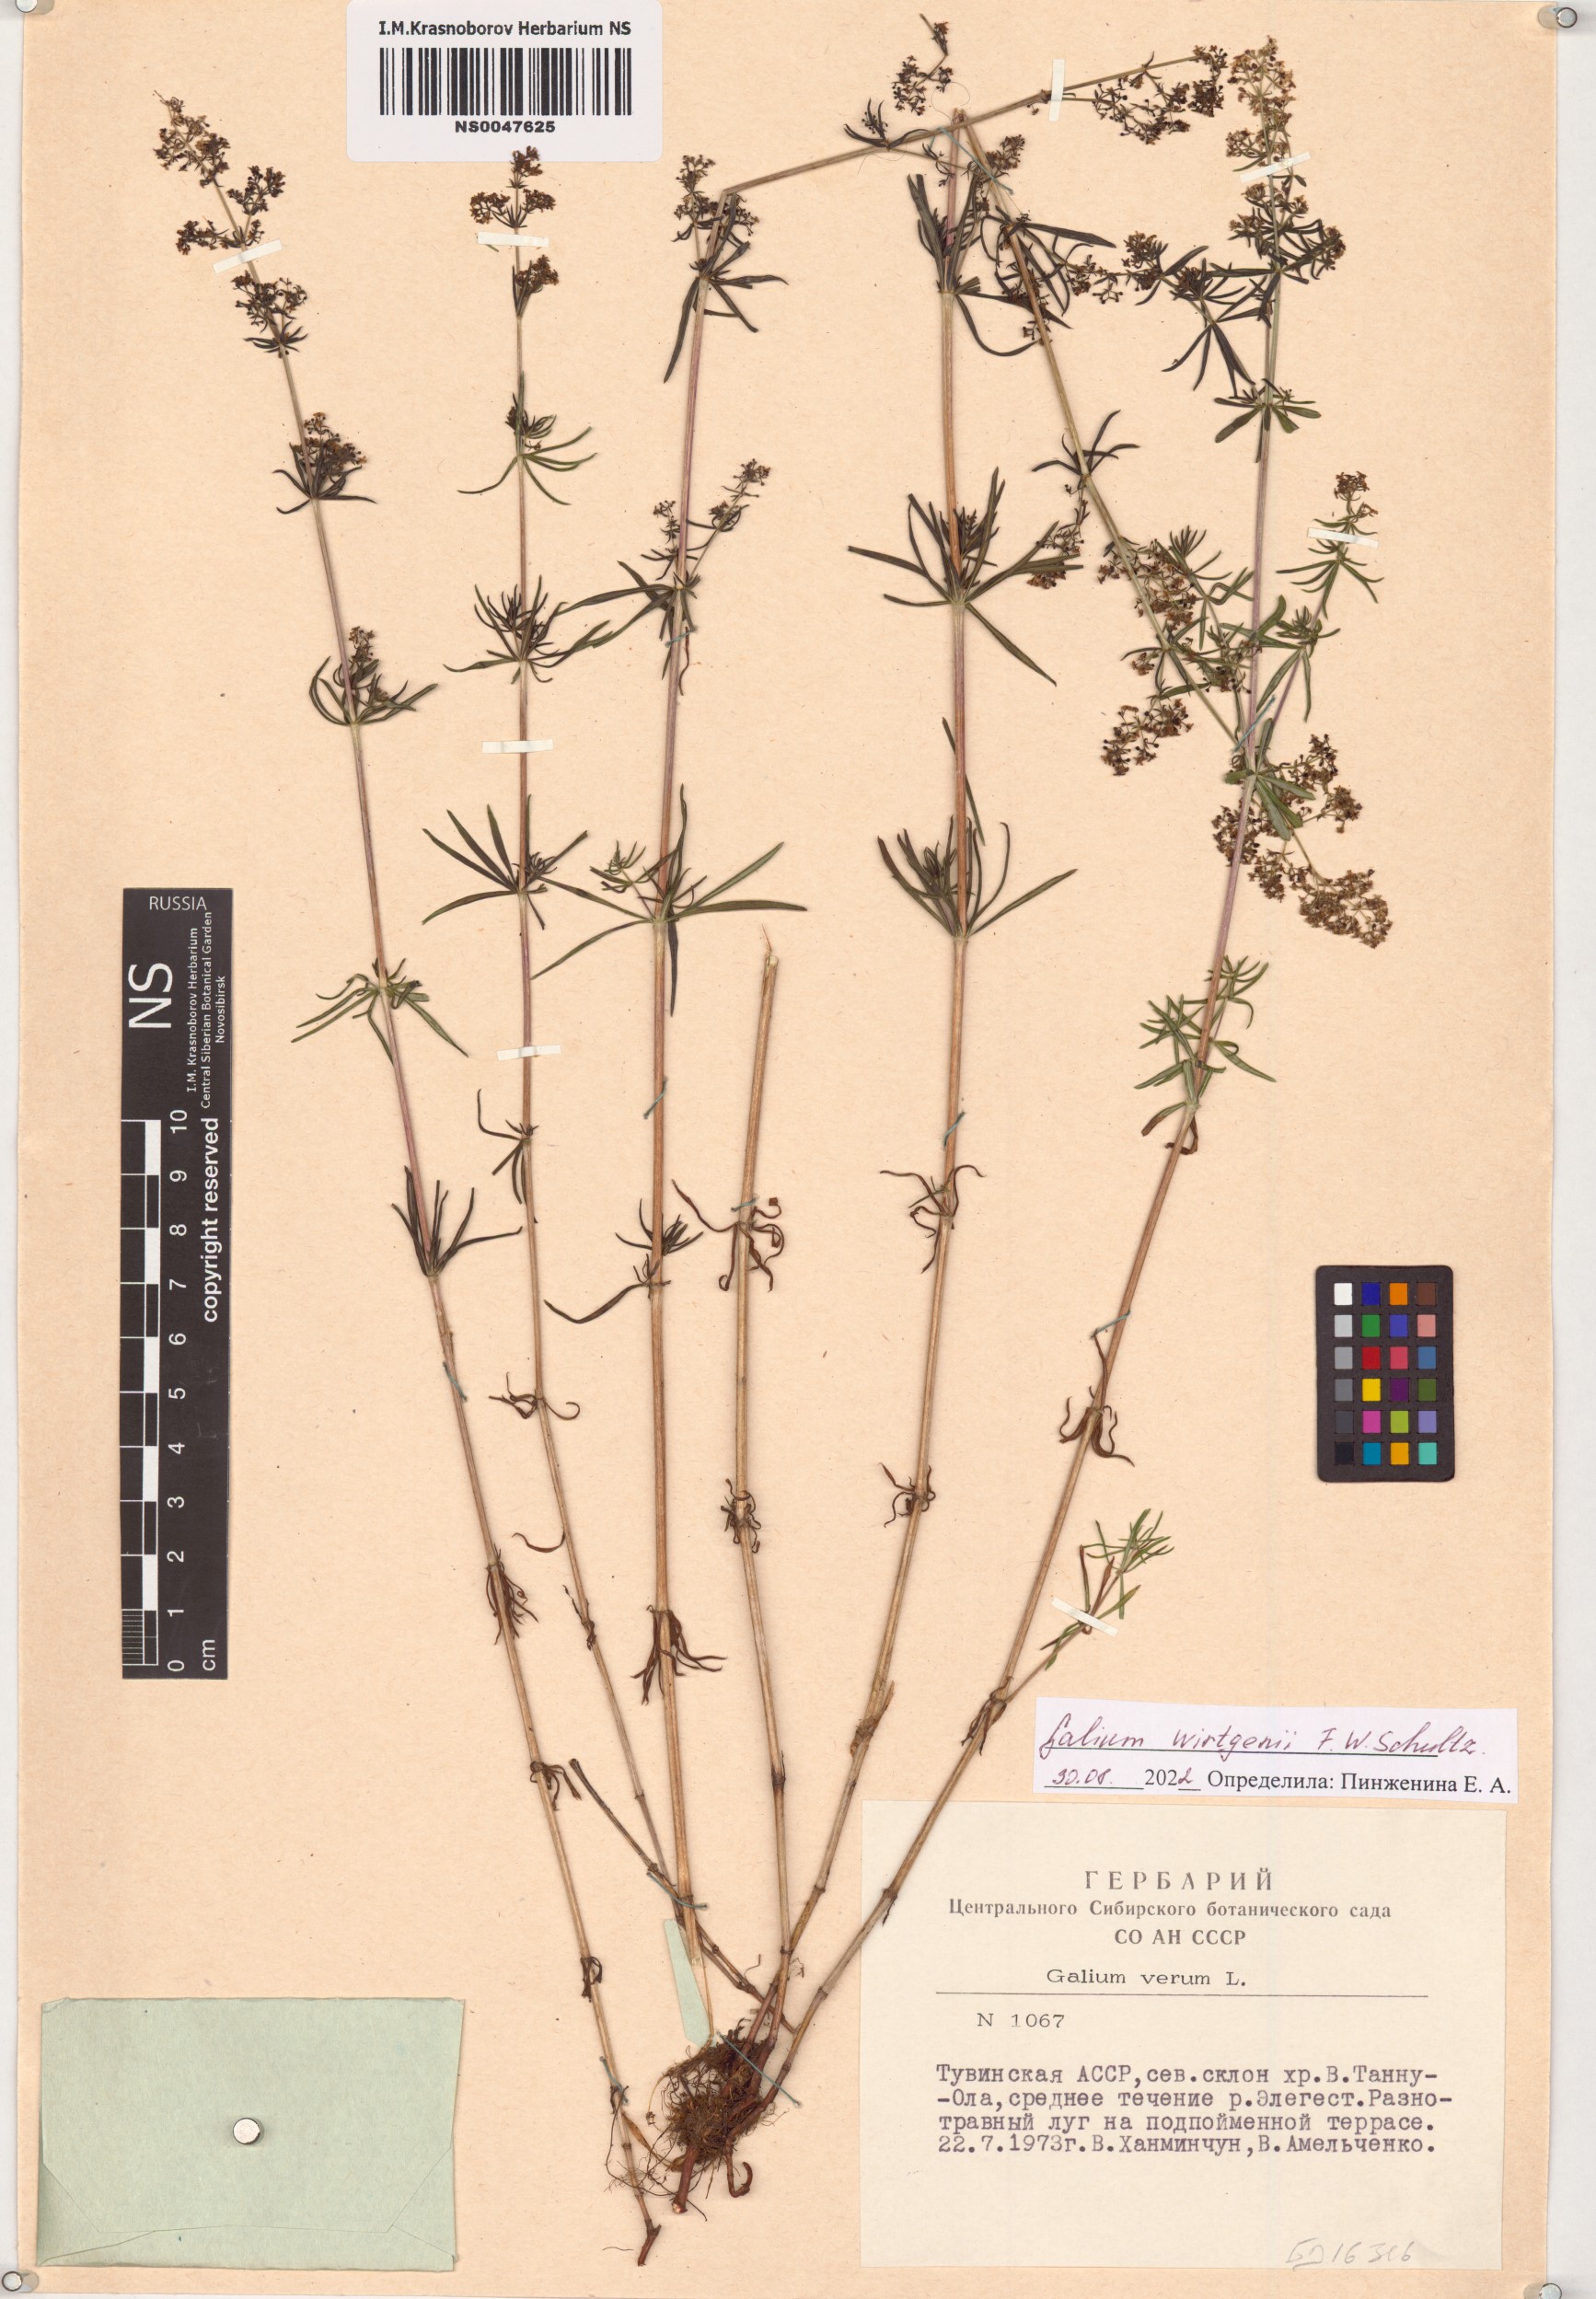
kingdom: Plantae
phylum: Tracheophyta
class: Magnoliopsida
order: Gentianales
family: Rubiaceae
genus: Galium
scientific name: Galium verum
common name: Lady's bedstraw
